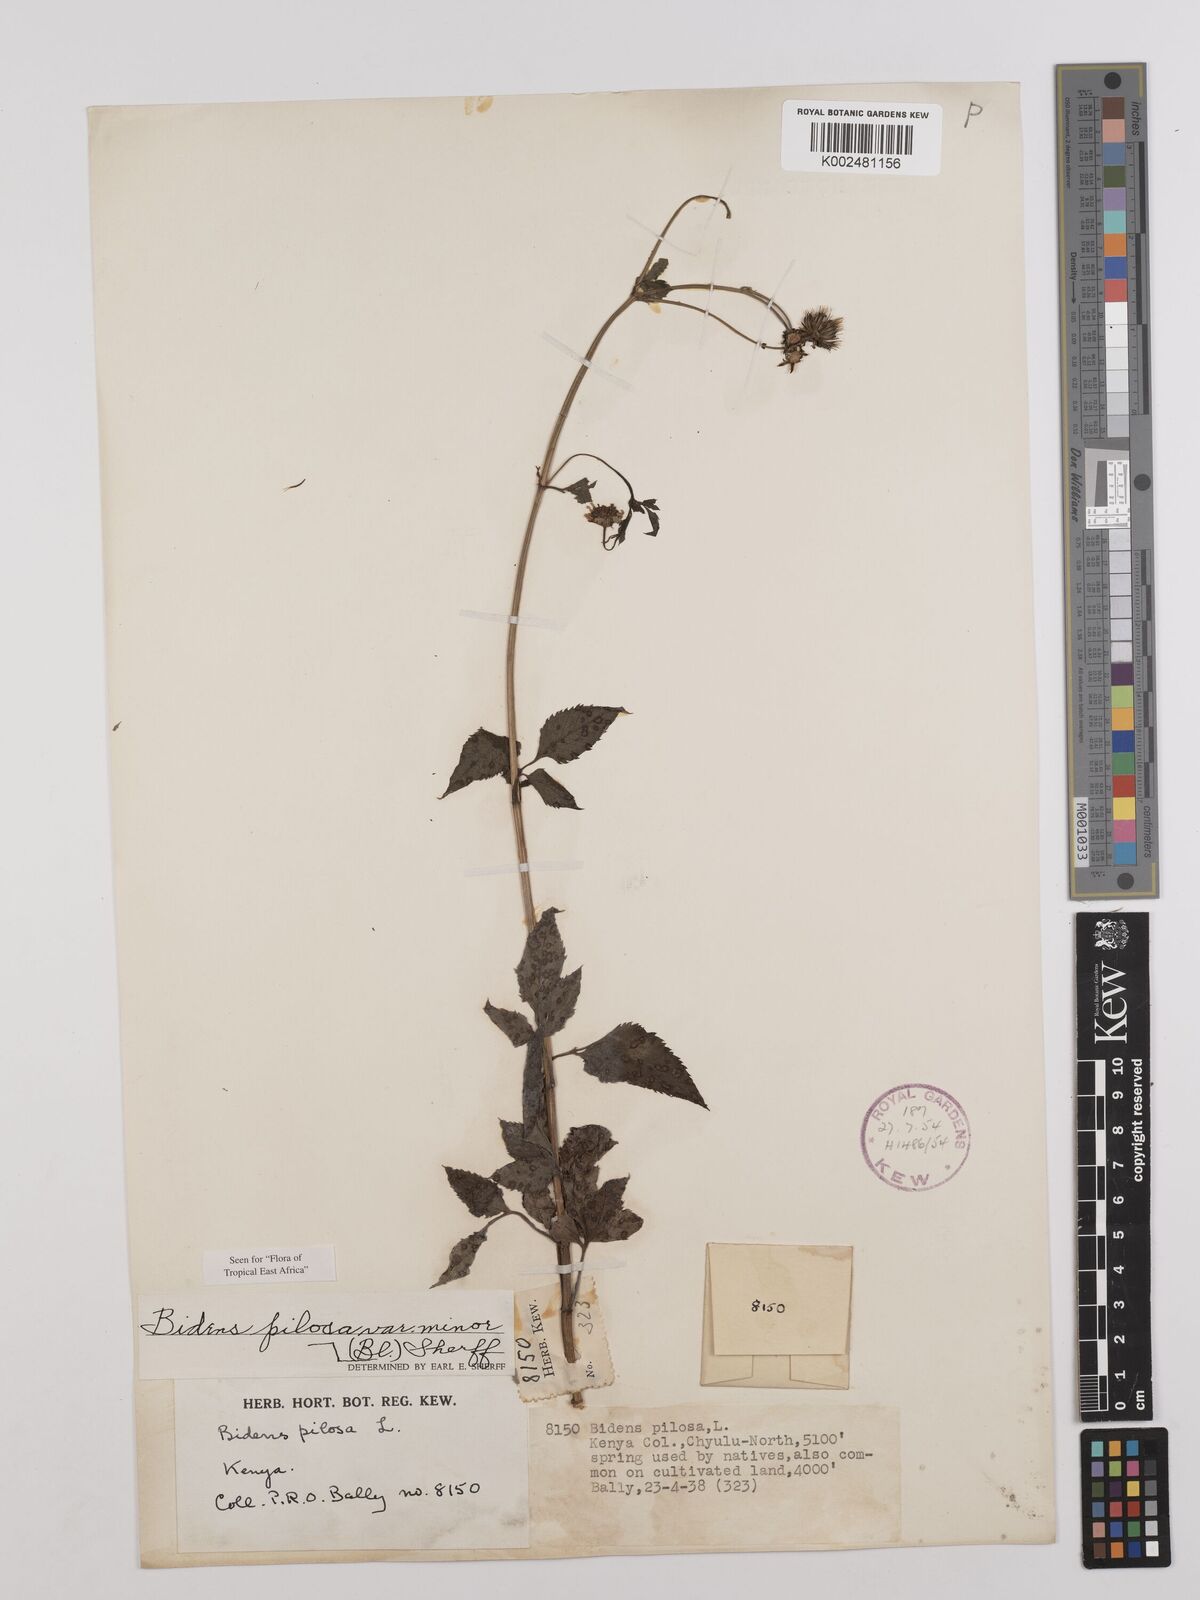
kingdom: Plantae
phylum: Tracheophyta
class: Magnoliopsida
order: Asterales
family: Asteraceae
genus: Bidens
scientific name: Bidens pilosa
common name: Black-jack
